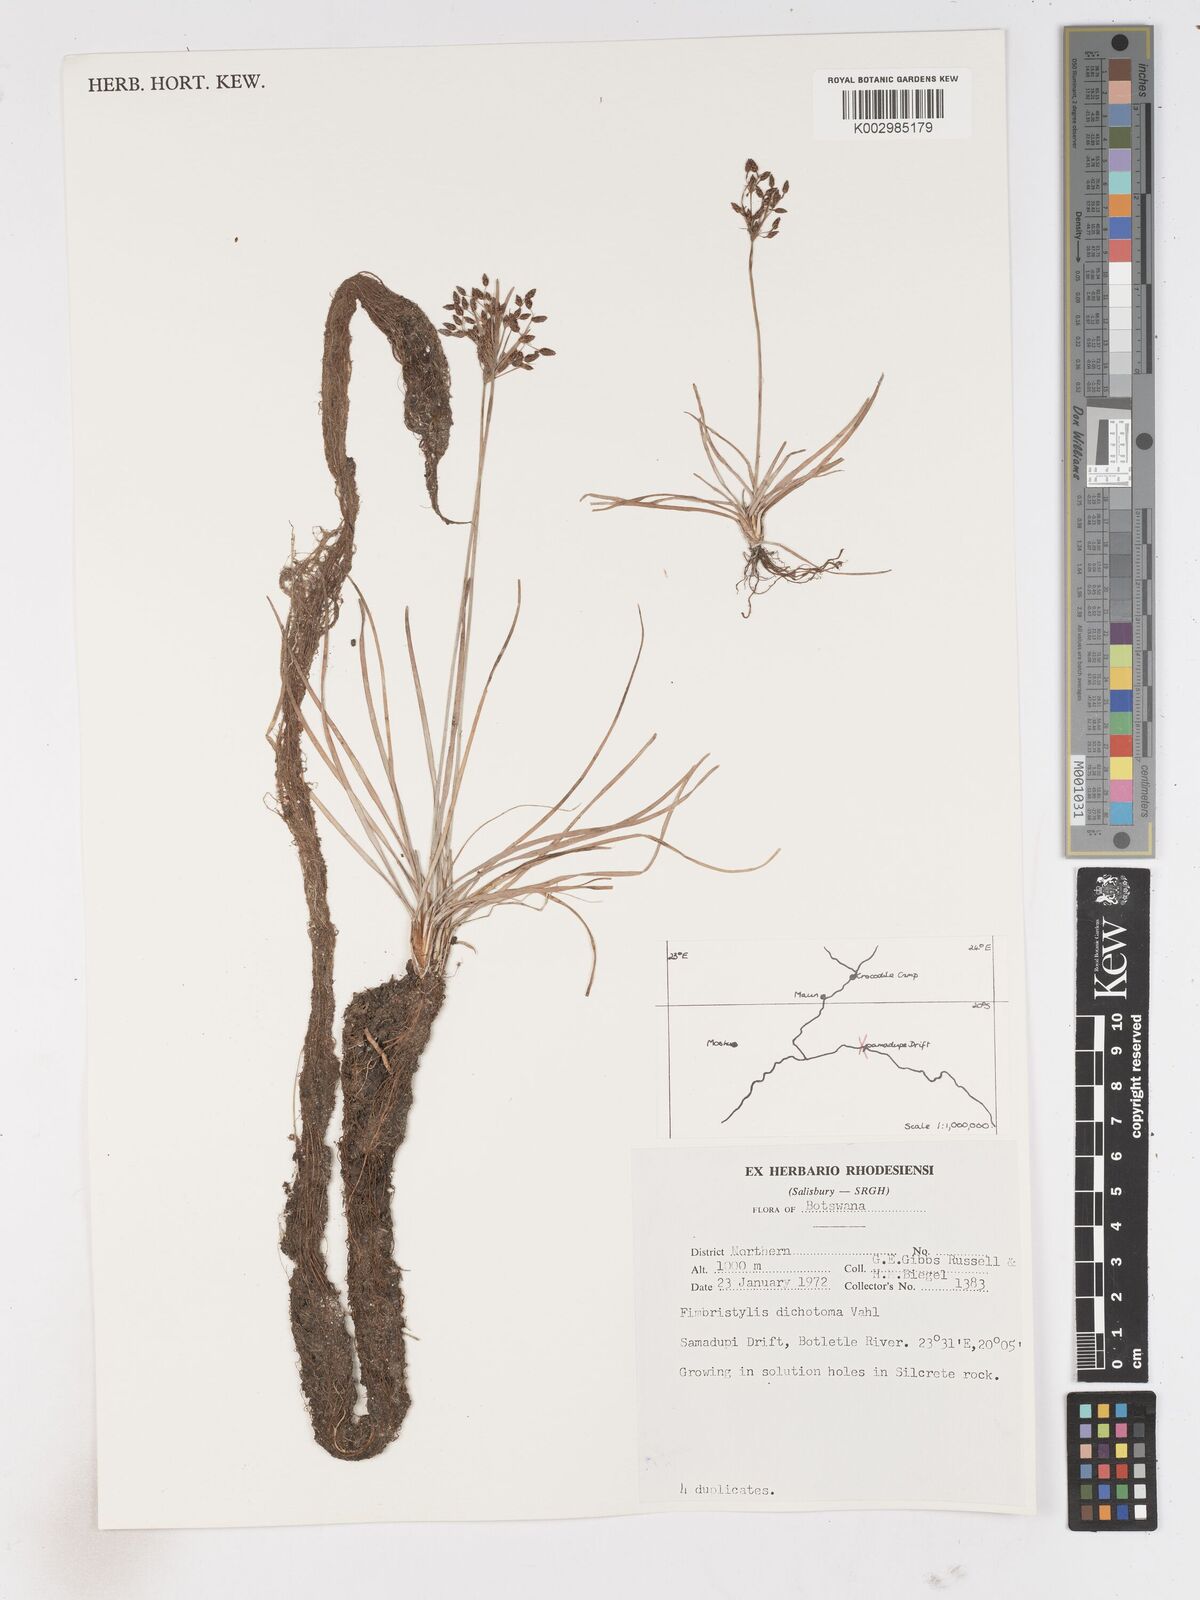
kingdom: Plantae
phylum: Tracheophyta
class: Liliopsida
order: Poales
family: Cyperaceae
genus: Fimbristylis
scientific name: Fimbristylis dichotoma
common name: Forked fimbry
